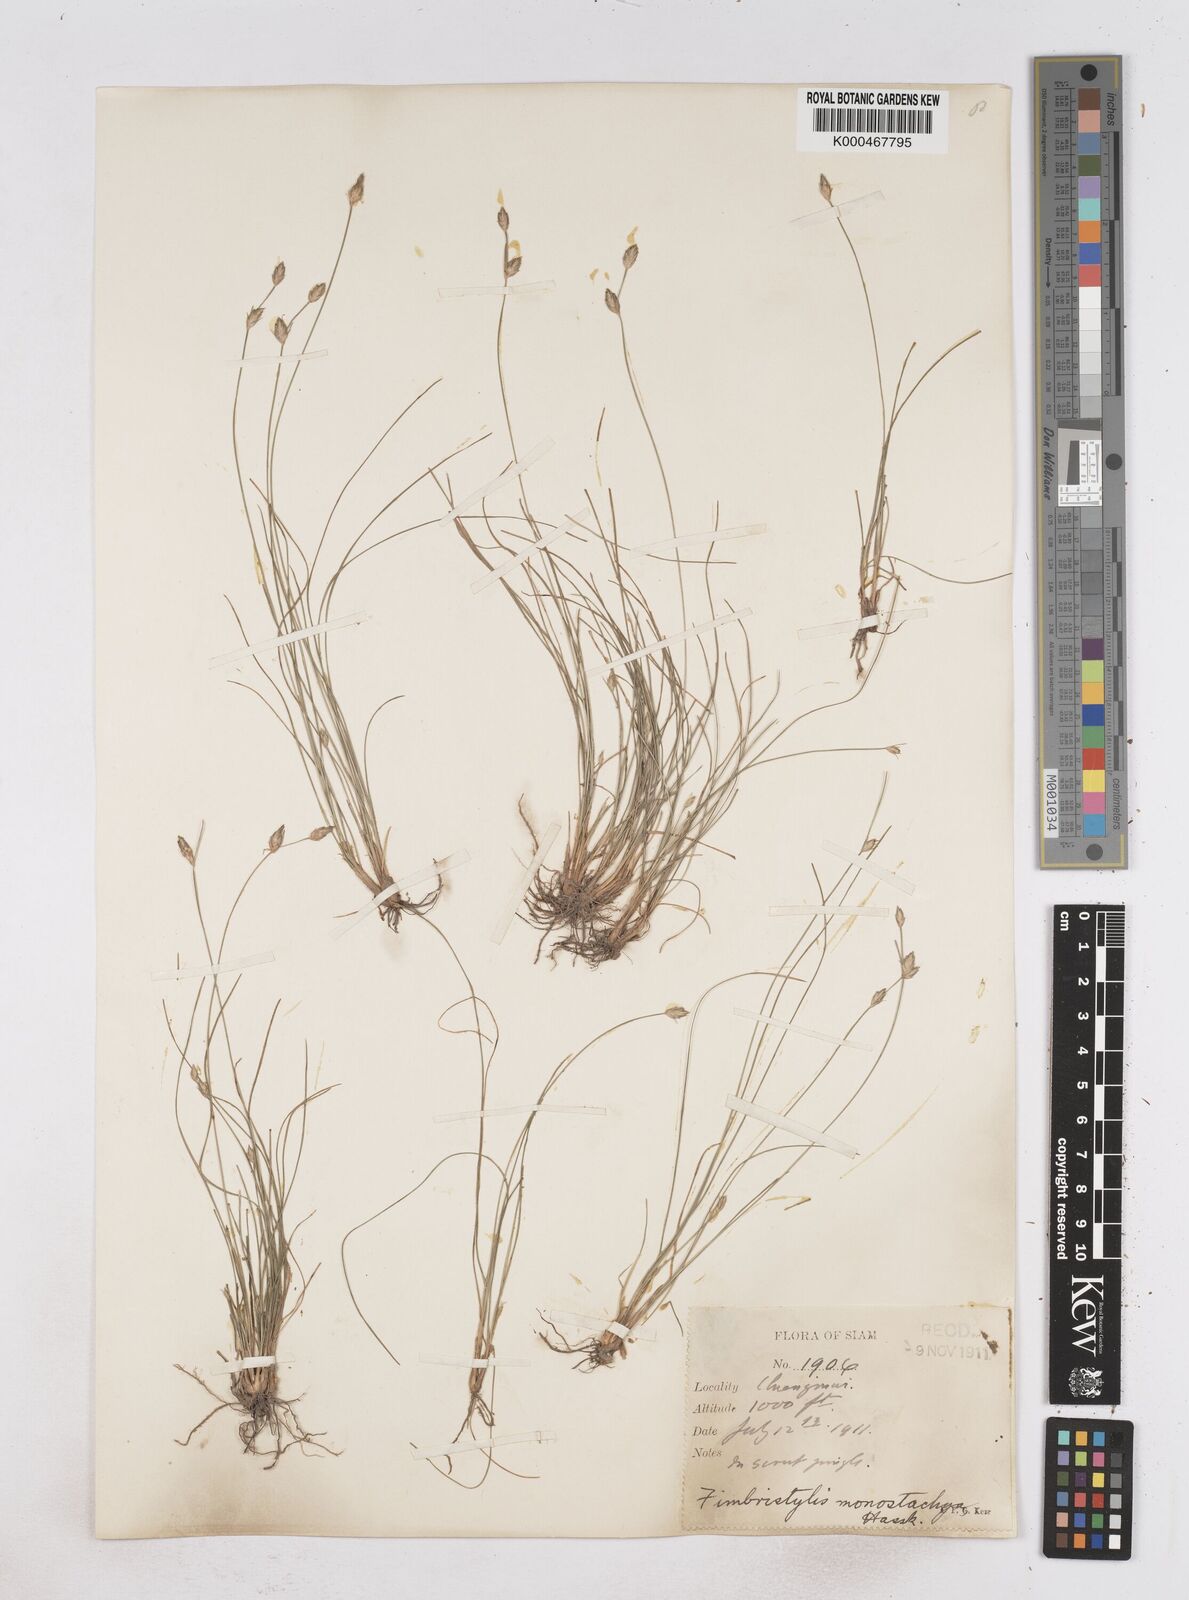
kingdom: Plantae
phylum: Tracheophyta
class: Liliopsida
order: Poales
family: Cyperaceae
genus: Abildgaardia
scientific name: Abildgaardia ovata
